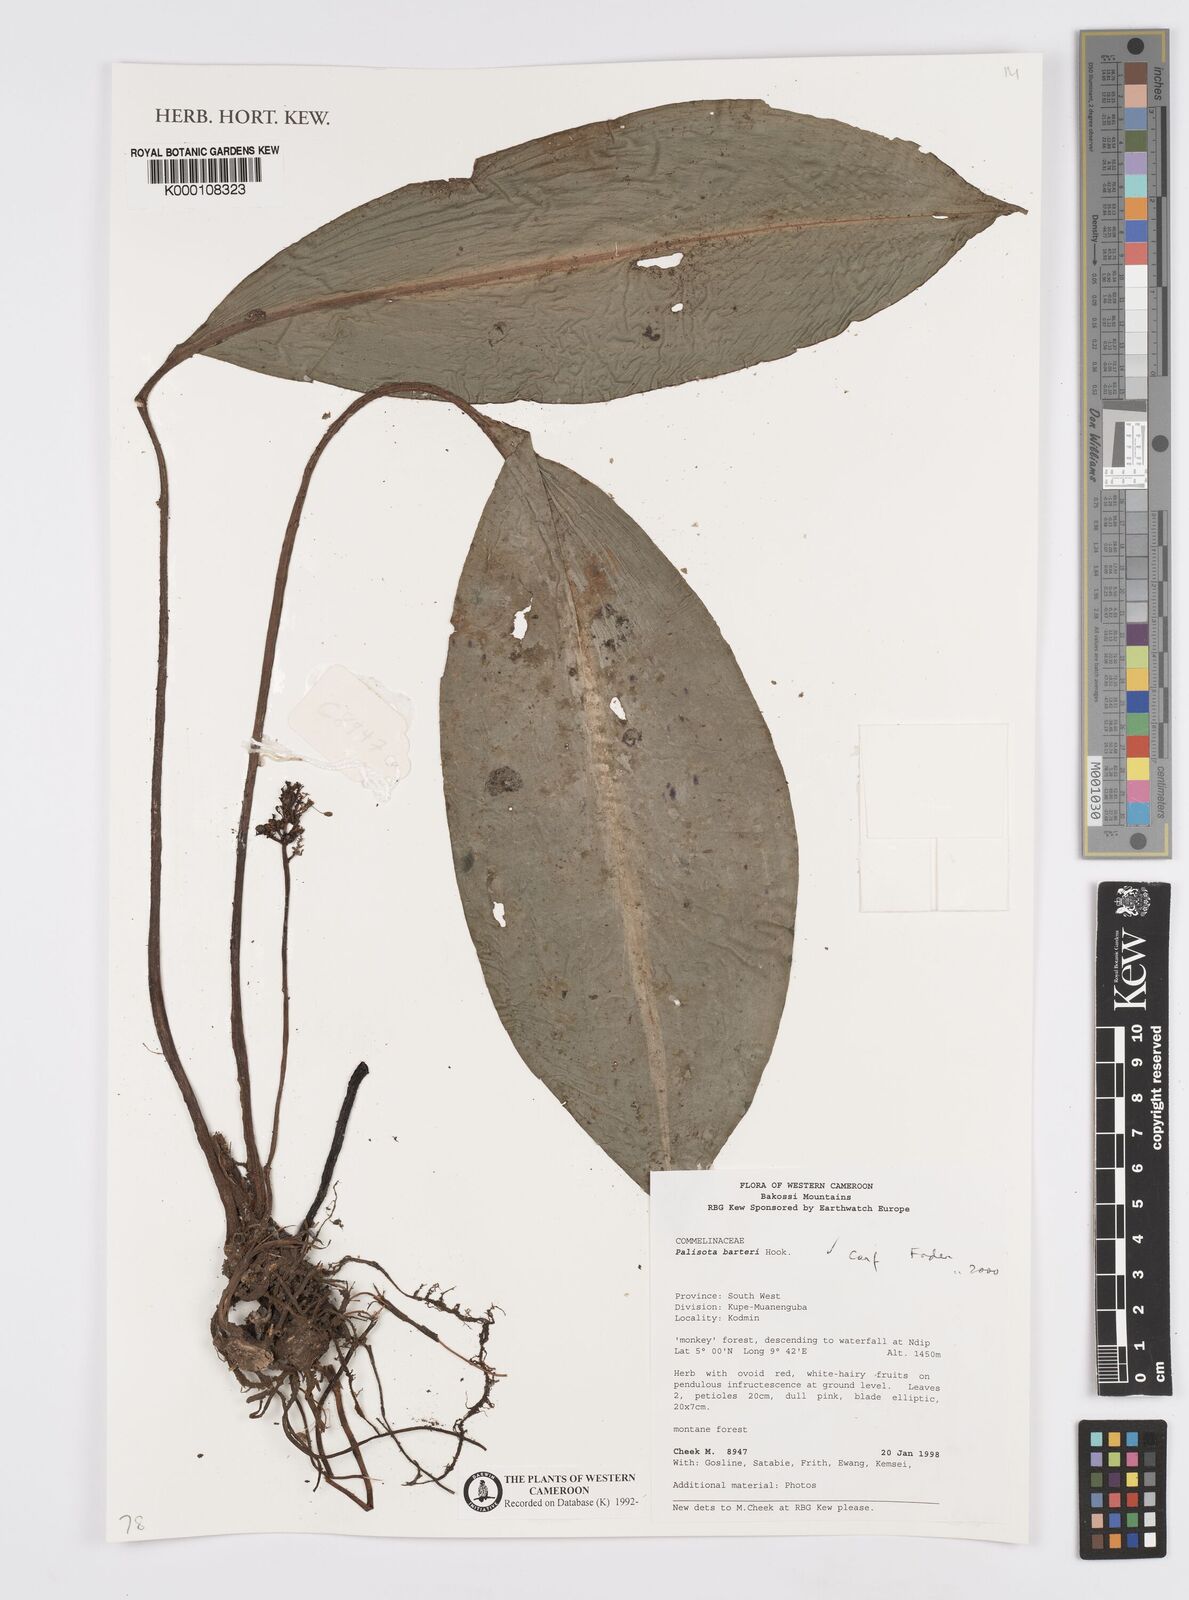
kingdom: Plantae
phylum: Tracheophyta
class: Liliopsida
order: Commelinales
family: Commelinaceae
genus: Palisota
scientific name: Palisota barteri
